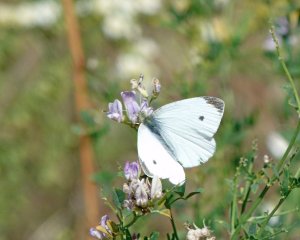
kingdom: Animalia
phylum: Arthropoda
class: Insecta
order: Lepidoptera
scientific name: Lepidoptera
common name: Butterflies
